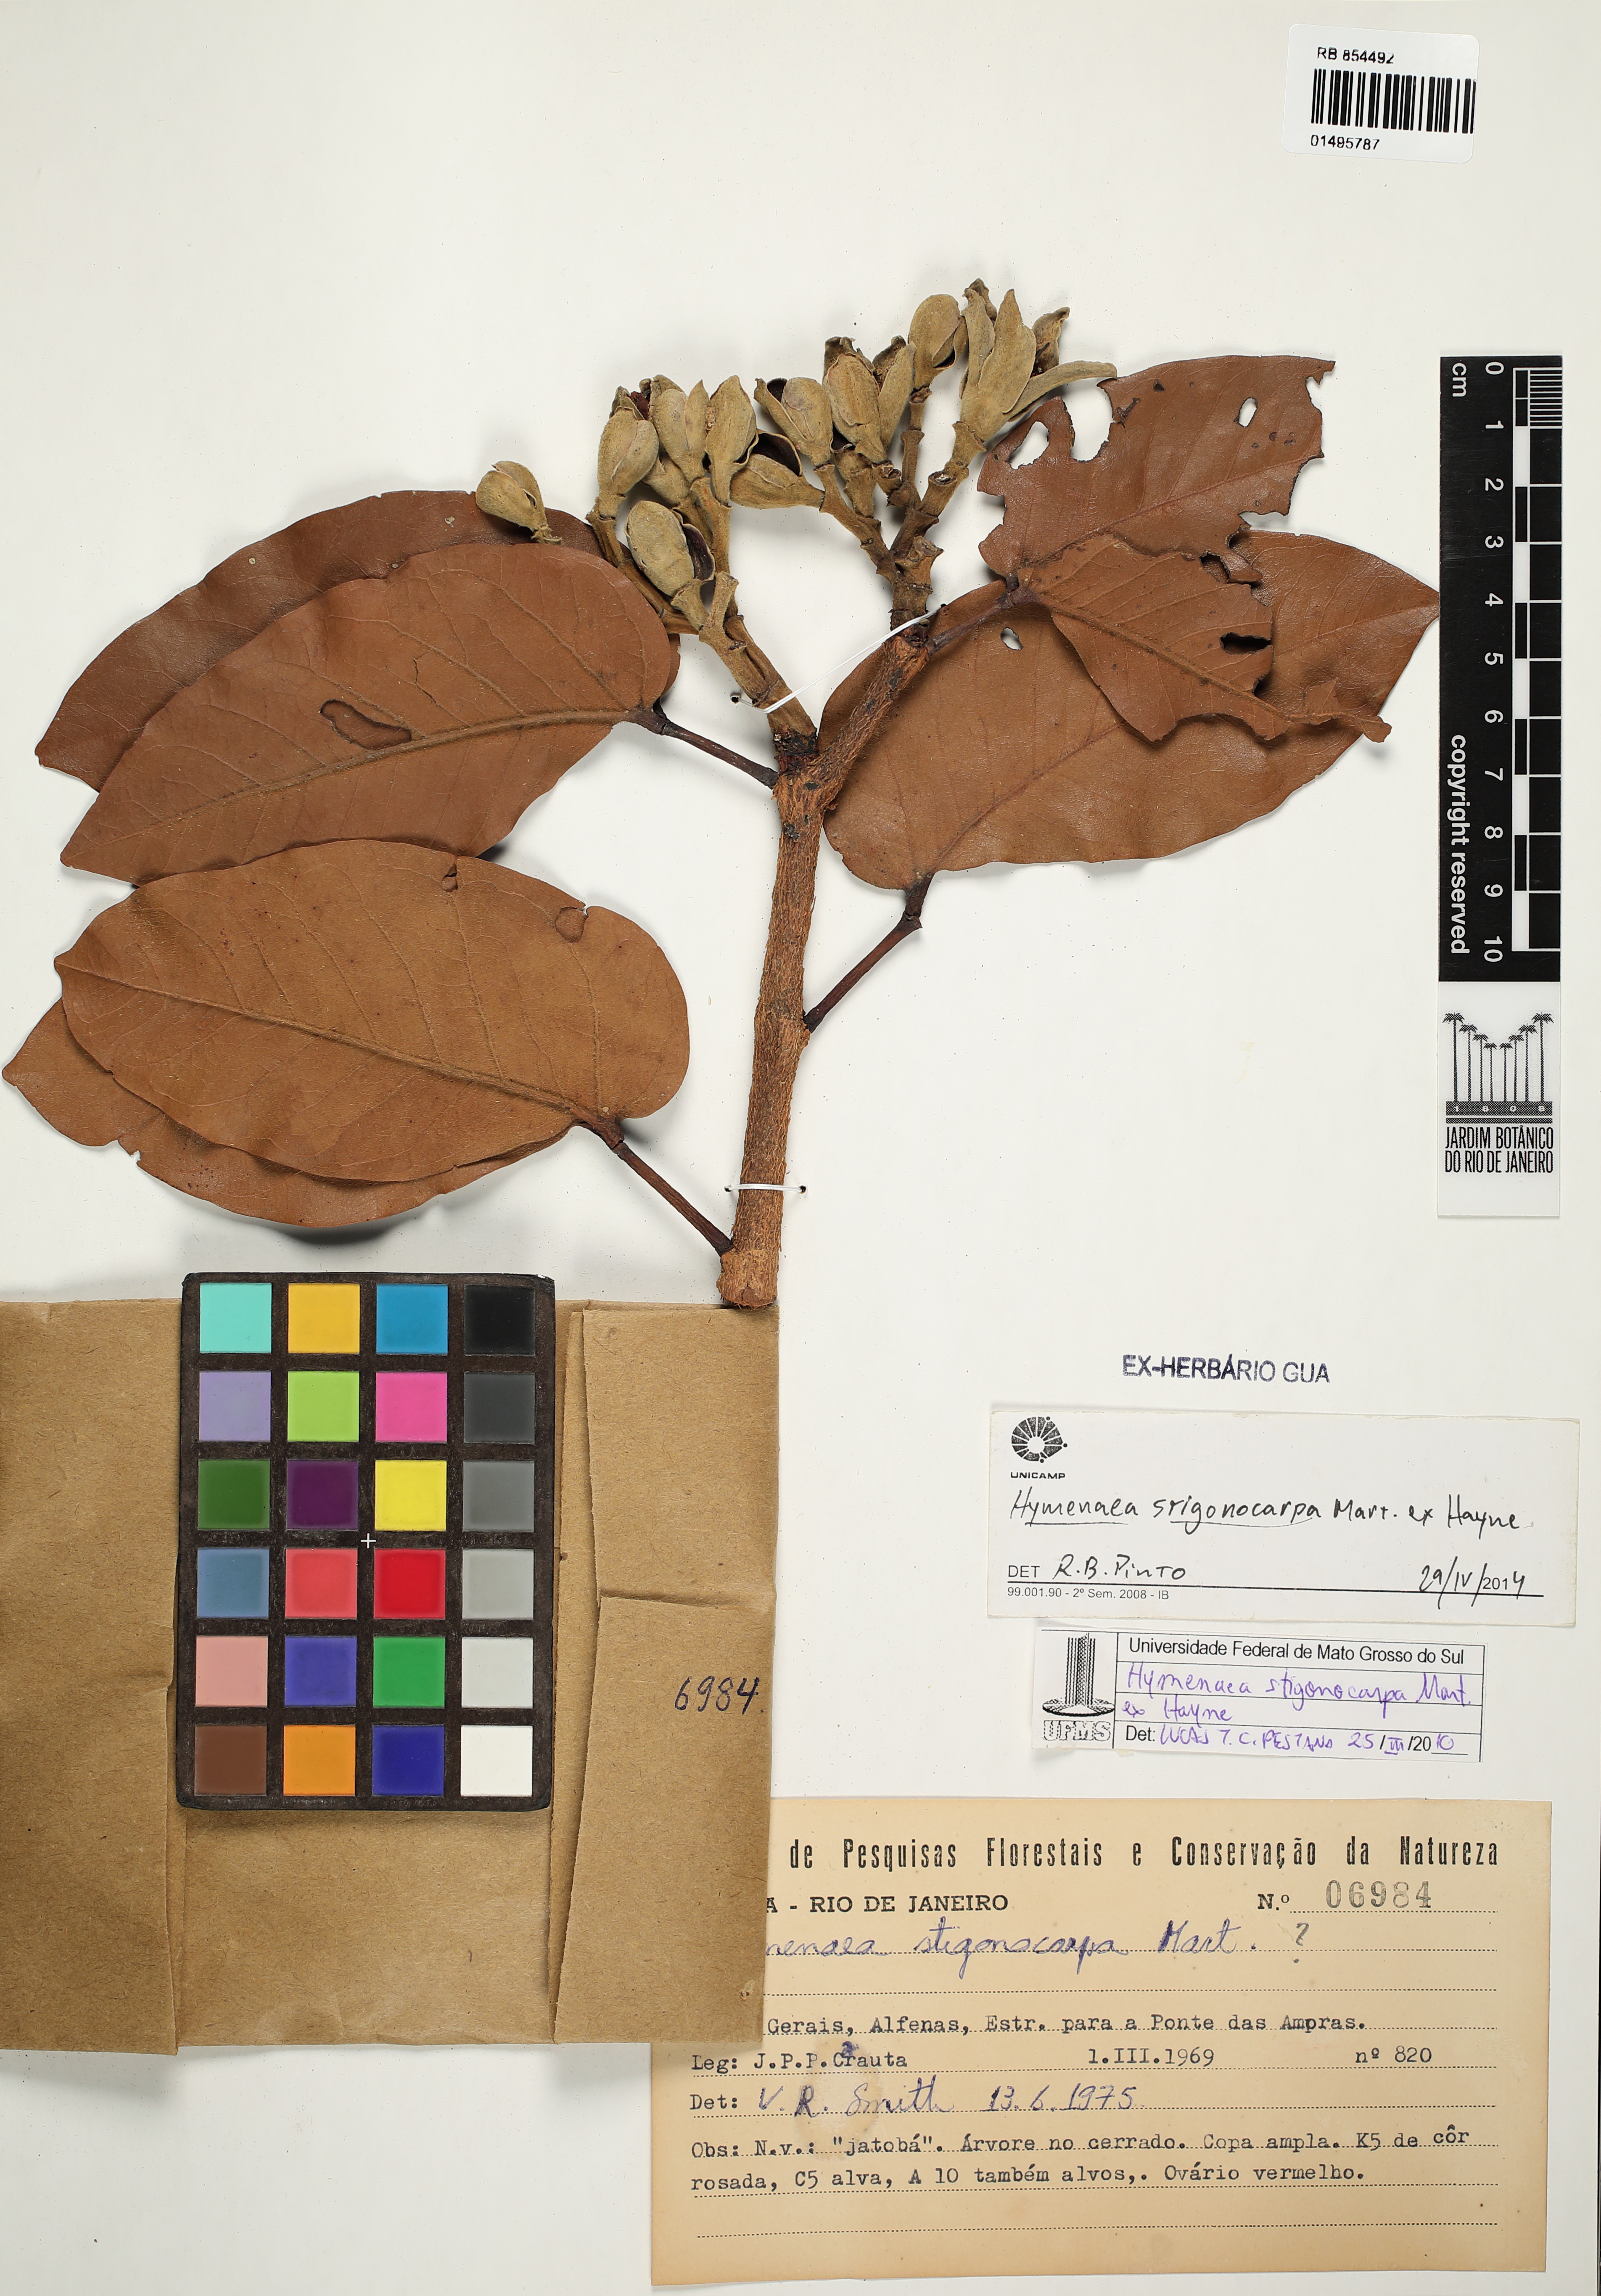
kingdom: Plantae
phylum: Tracheophyta
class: Magnoliopsida
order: Fabales
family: Fabaceae
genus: Hymenaea
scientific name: Hymenaea stigonocarpa
